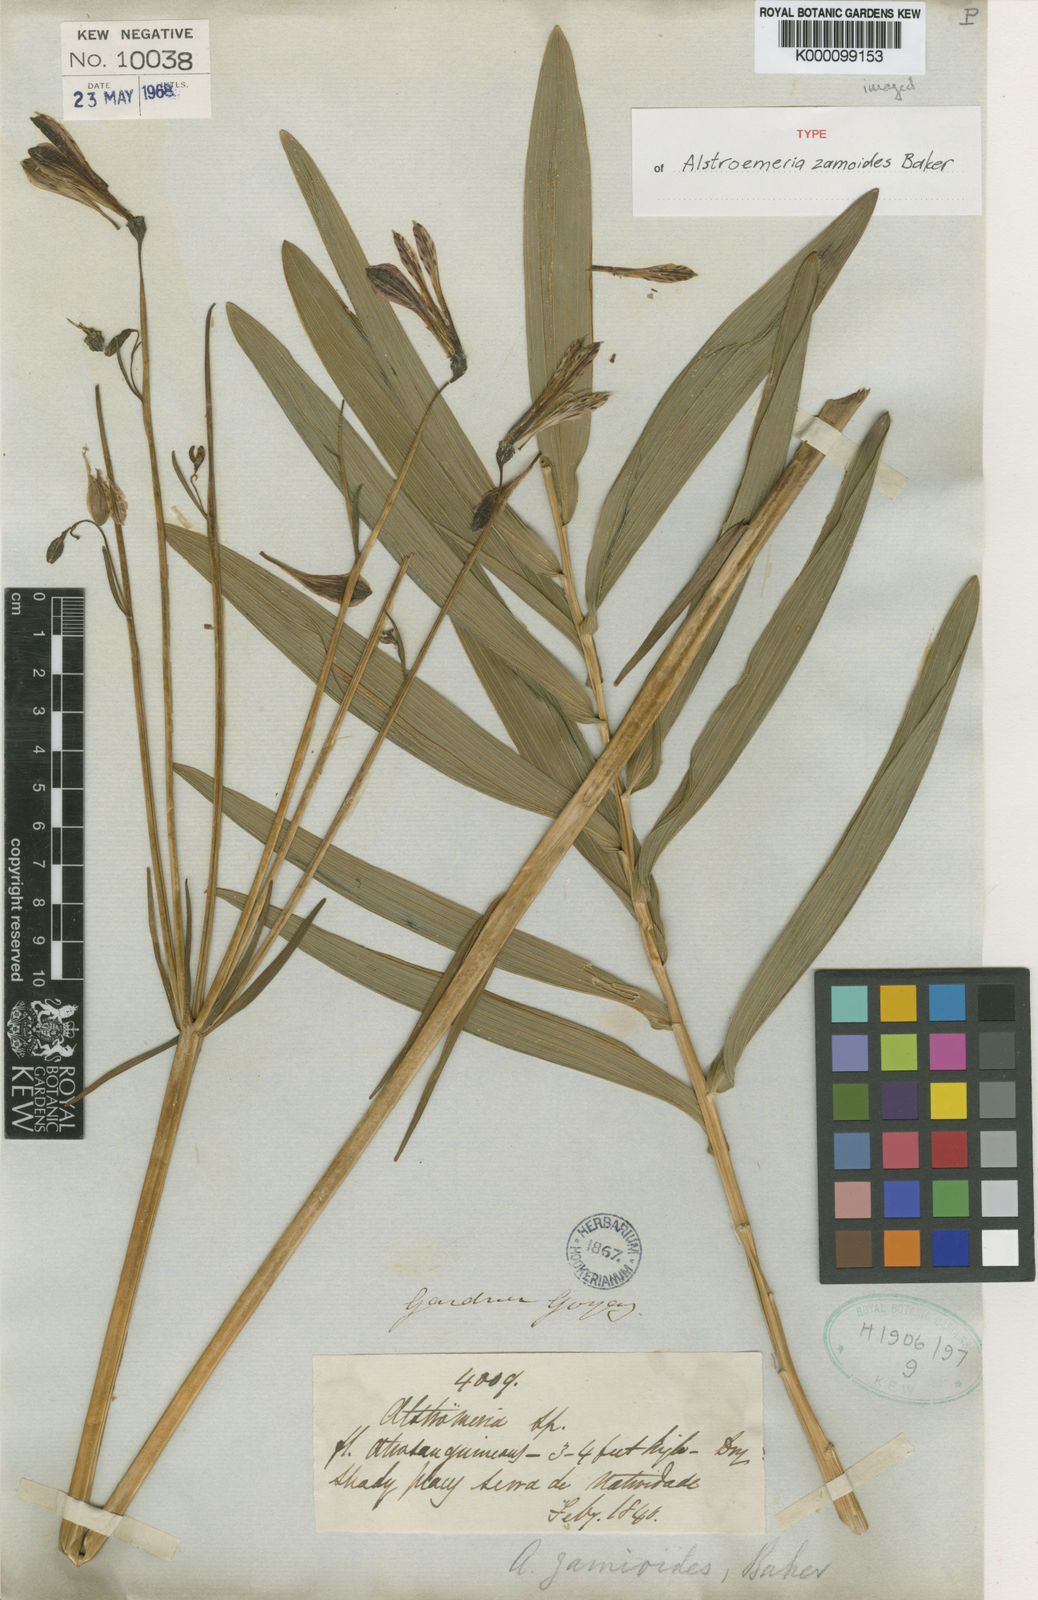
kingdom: Plantae
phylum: Tracheophyta
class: Liliopsida
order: Liliales
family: Alstroemeriaceae
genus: Alstroemeria
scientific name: Alstroemeria brasiliensis
